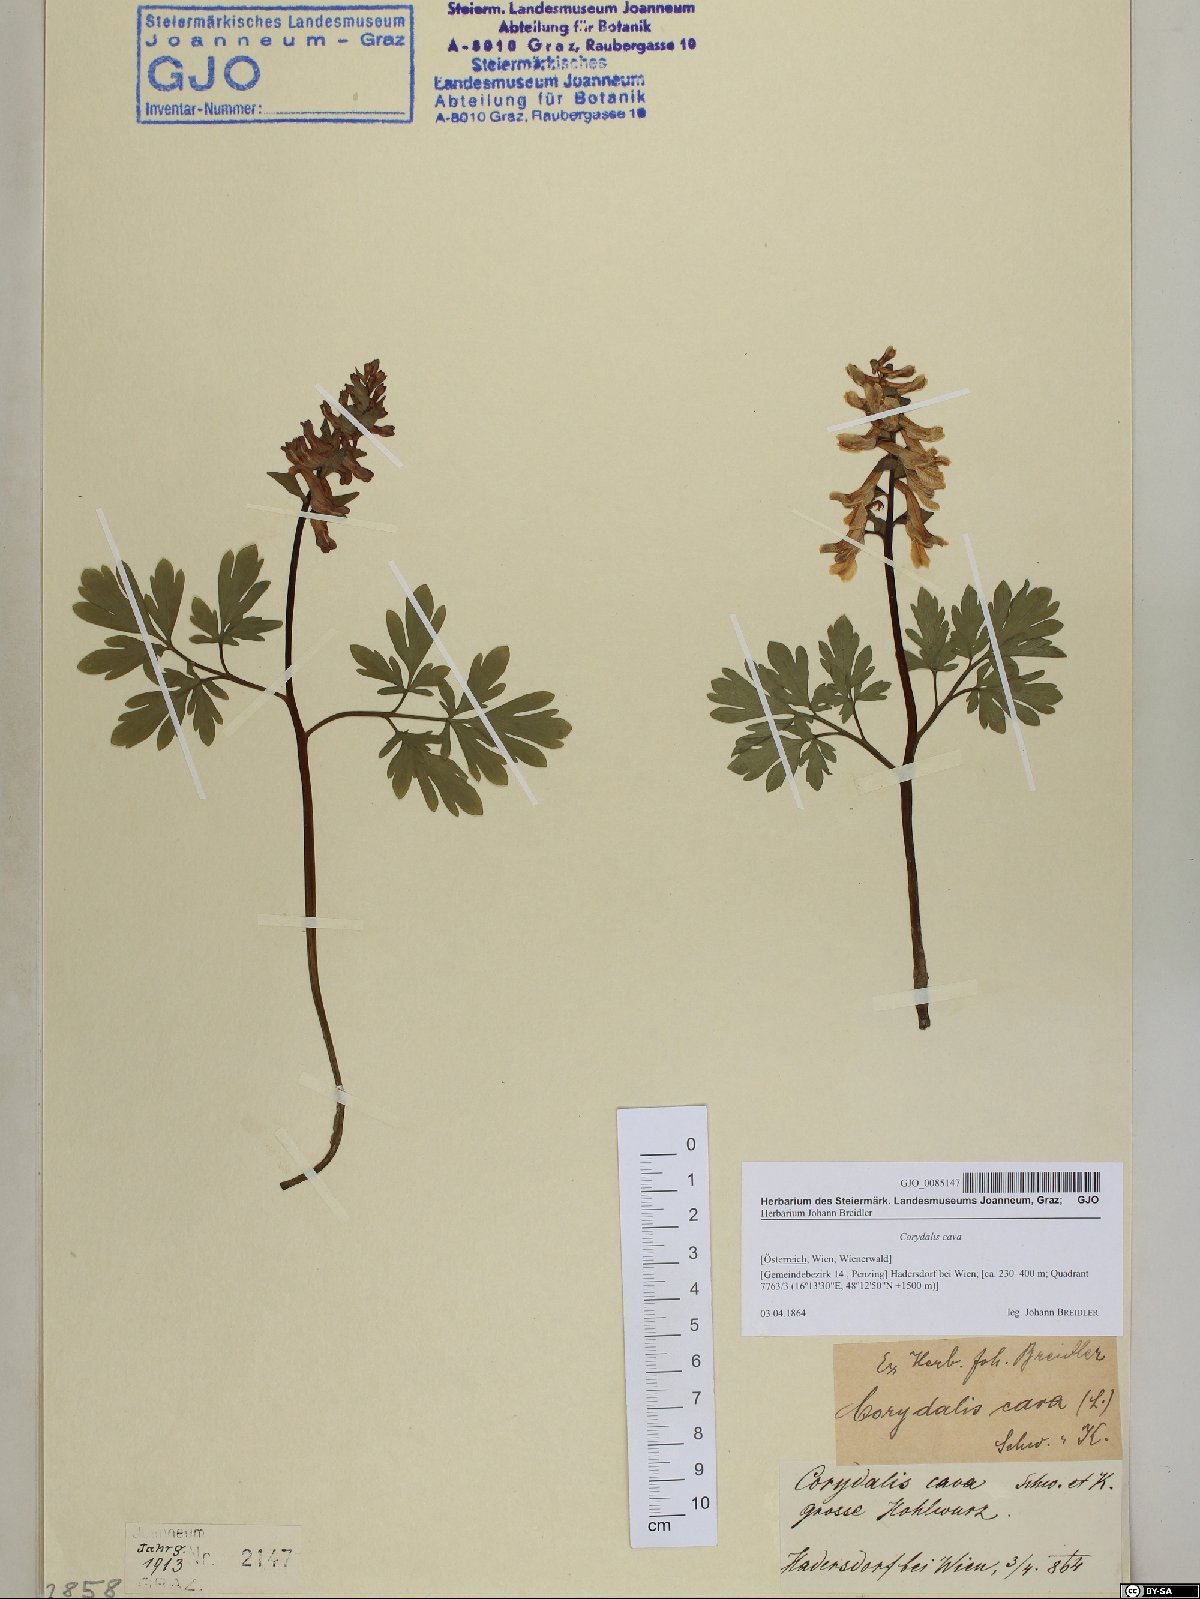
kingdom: Plantae
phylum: Tracheophyta
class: Magnoliopsida
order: Ranunculales
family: Papaveraceae
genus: Corydalis
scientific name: Corydalis cava
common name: Hollowroot
